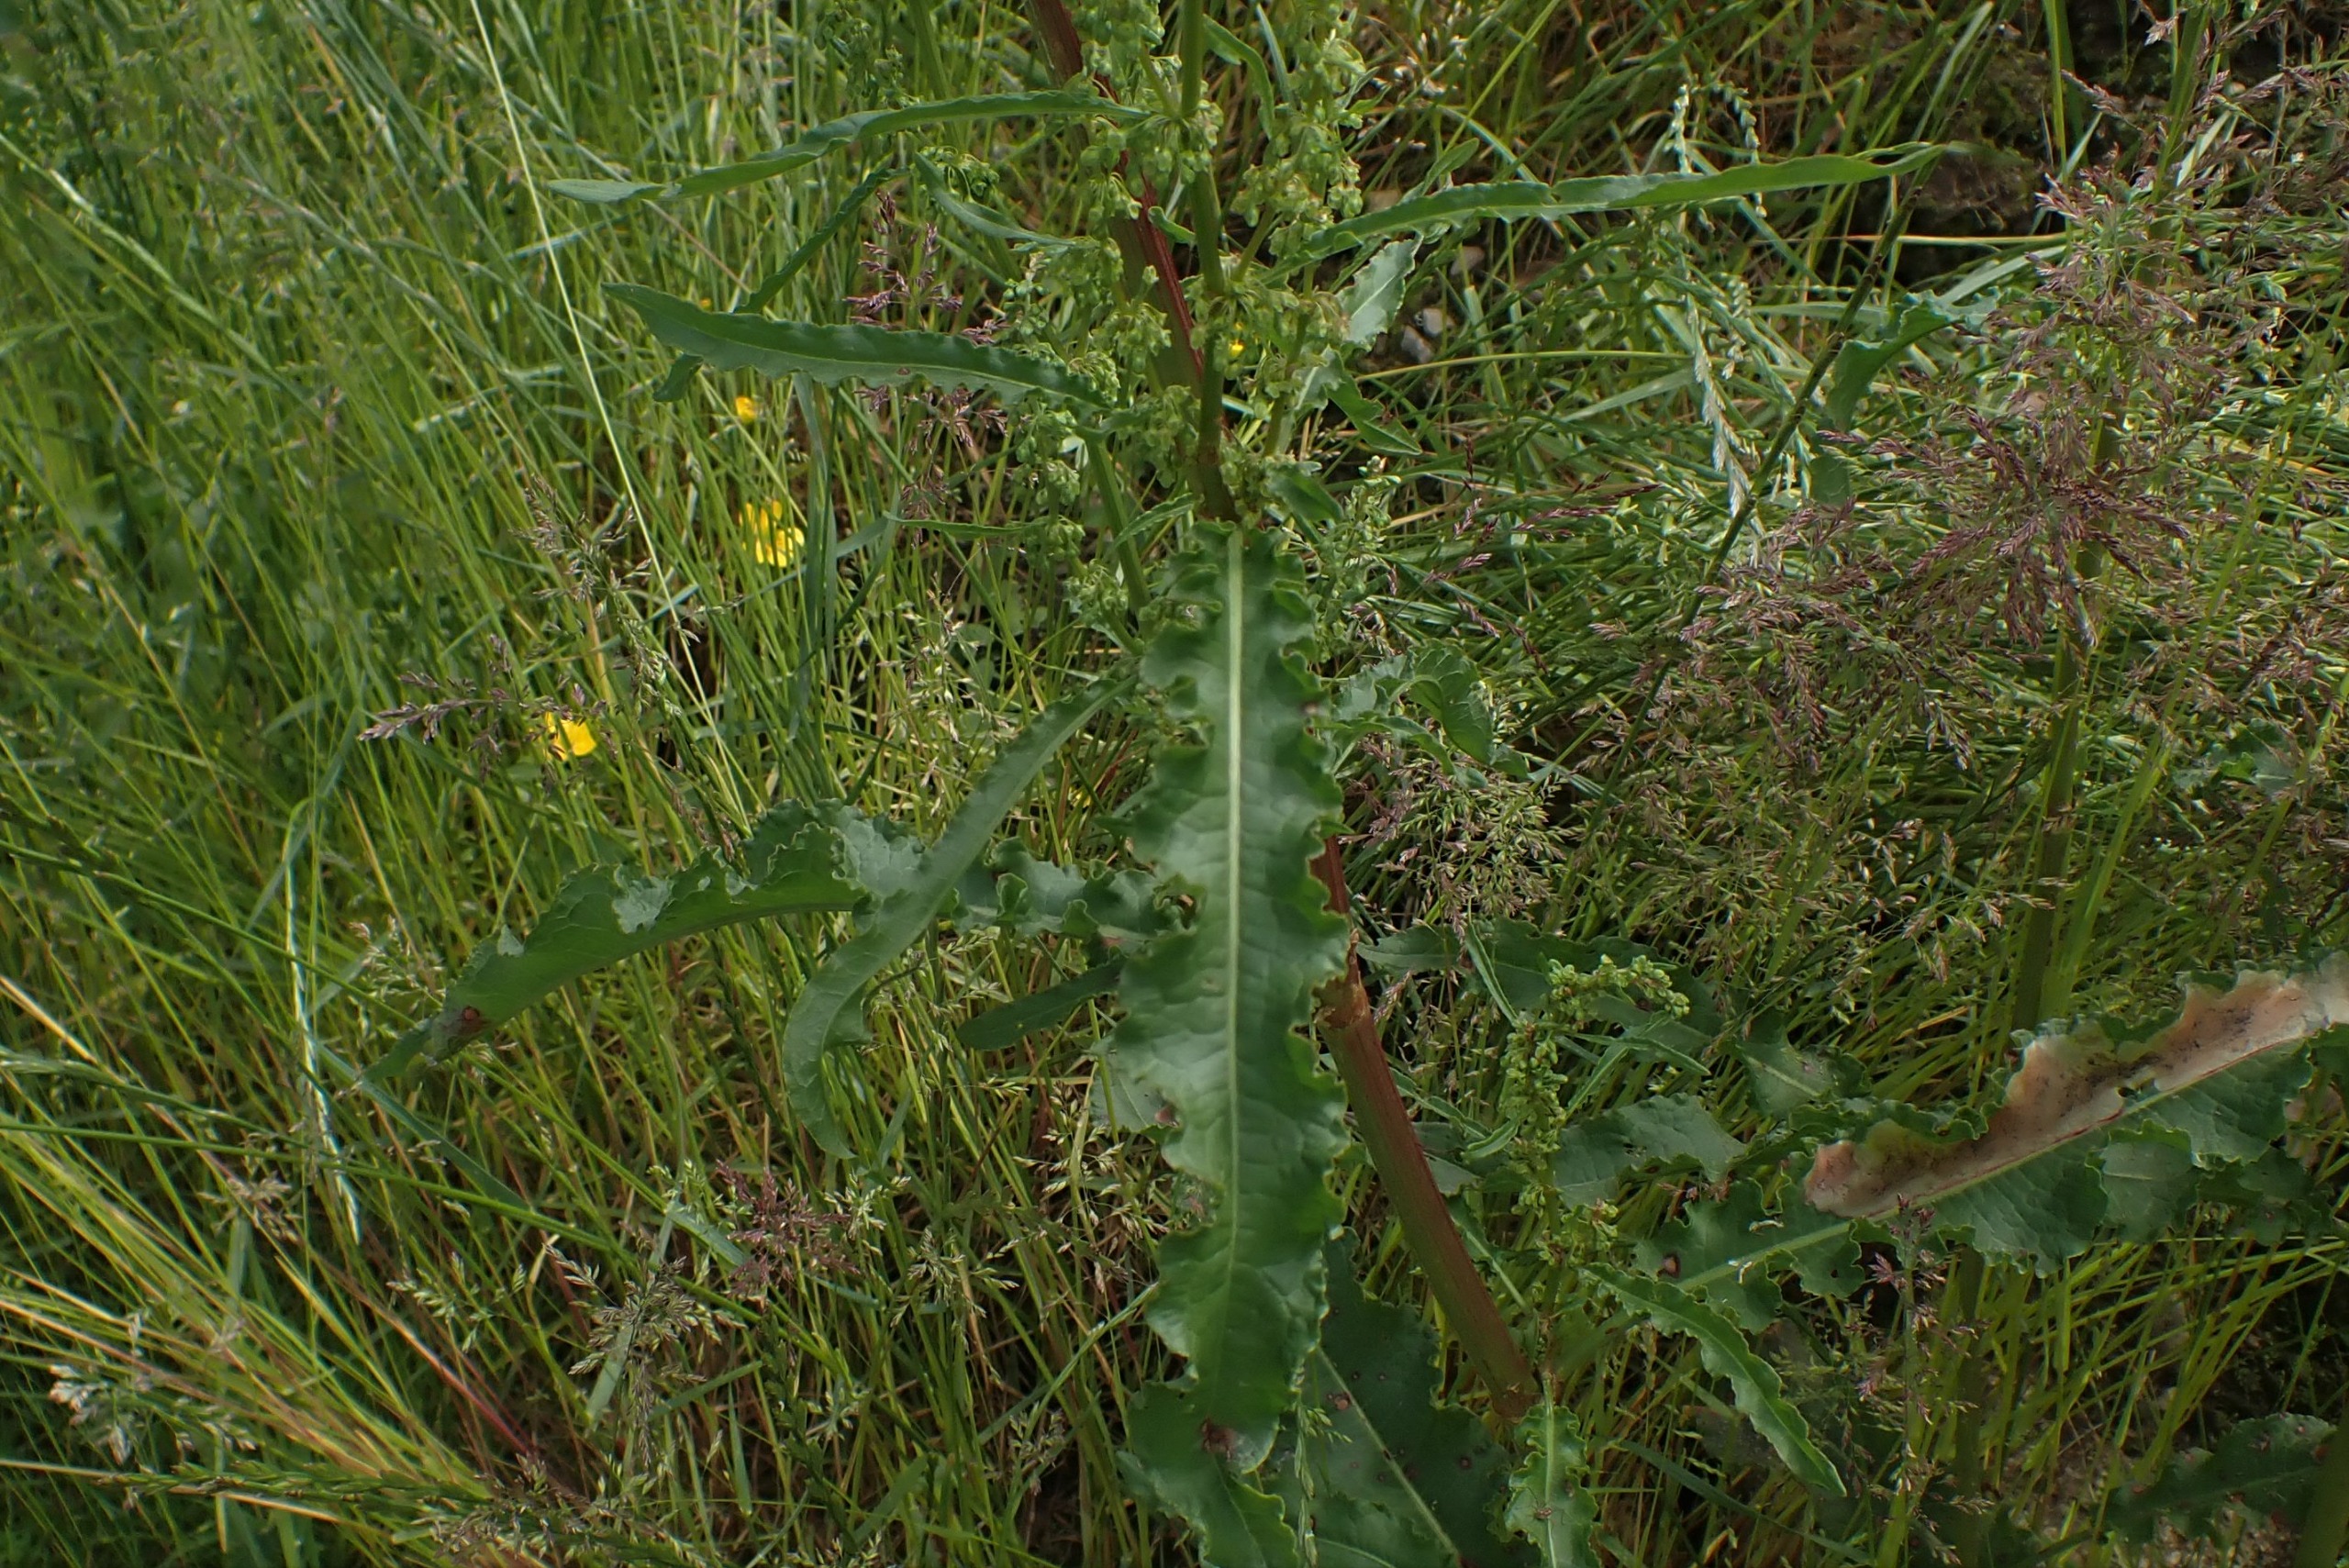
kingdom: Plantae
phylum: Tracheophyta
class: Magnoliopsida
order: Caryophyllales
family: Polygonaceae
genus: Rumex
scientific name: Rumex crispus
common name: Kruset skræppe
